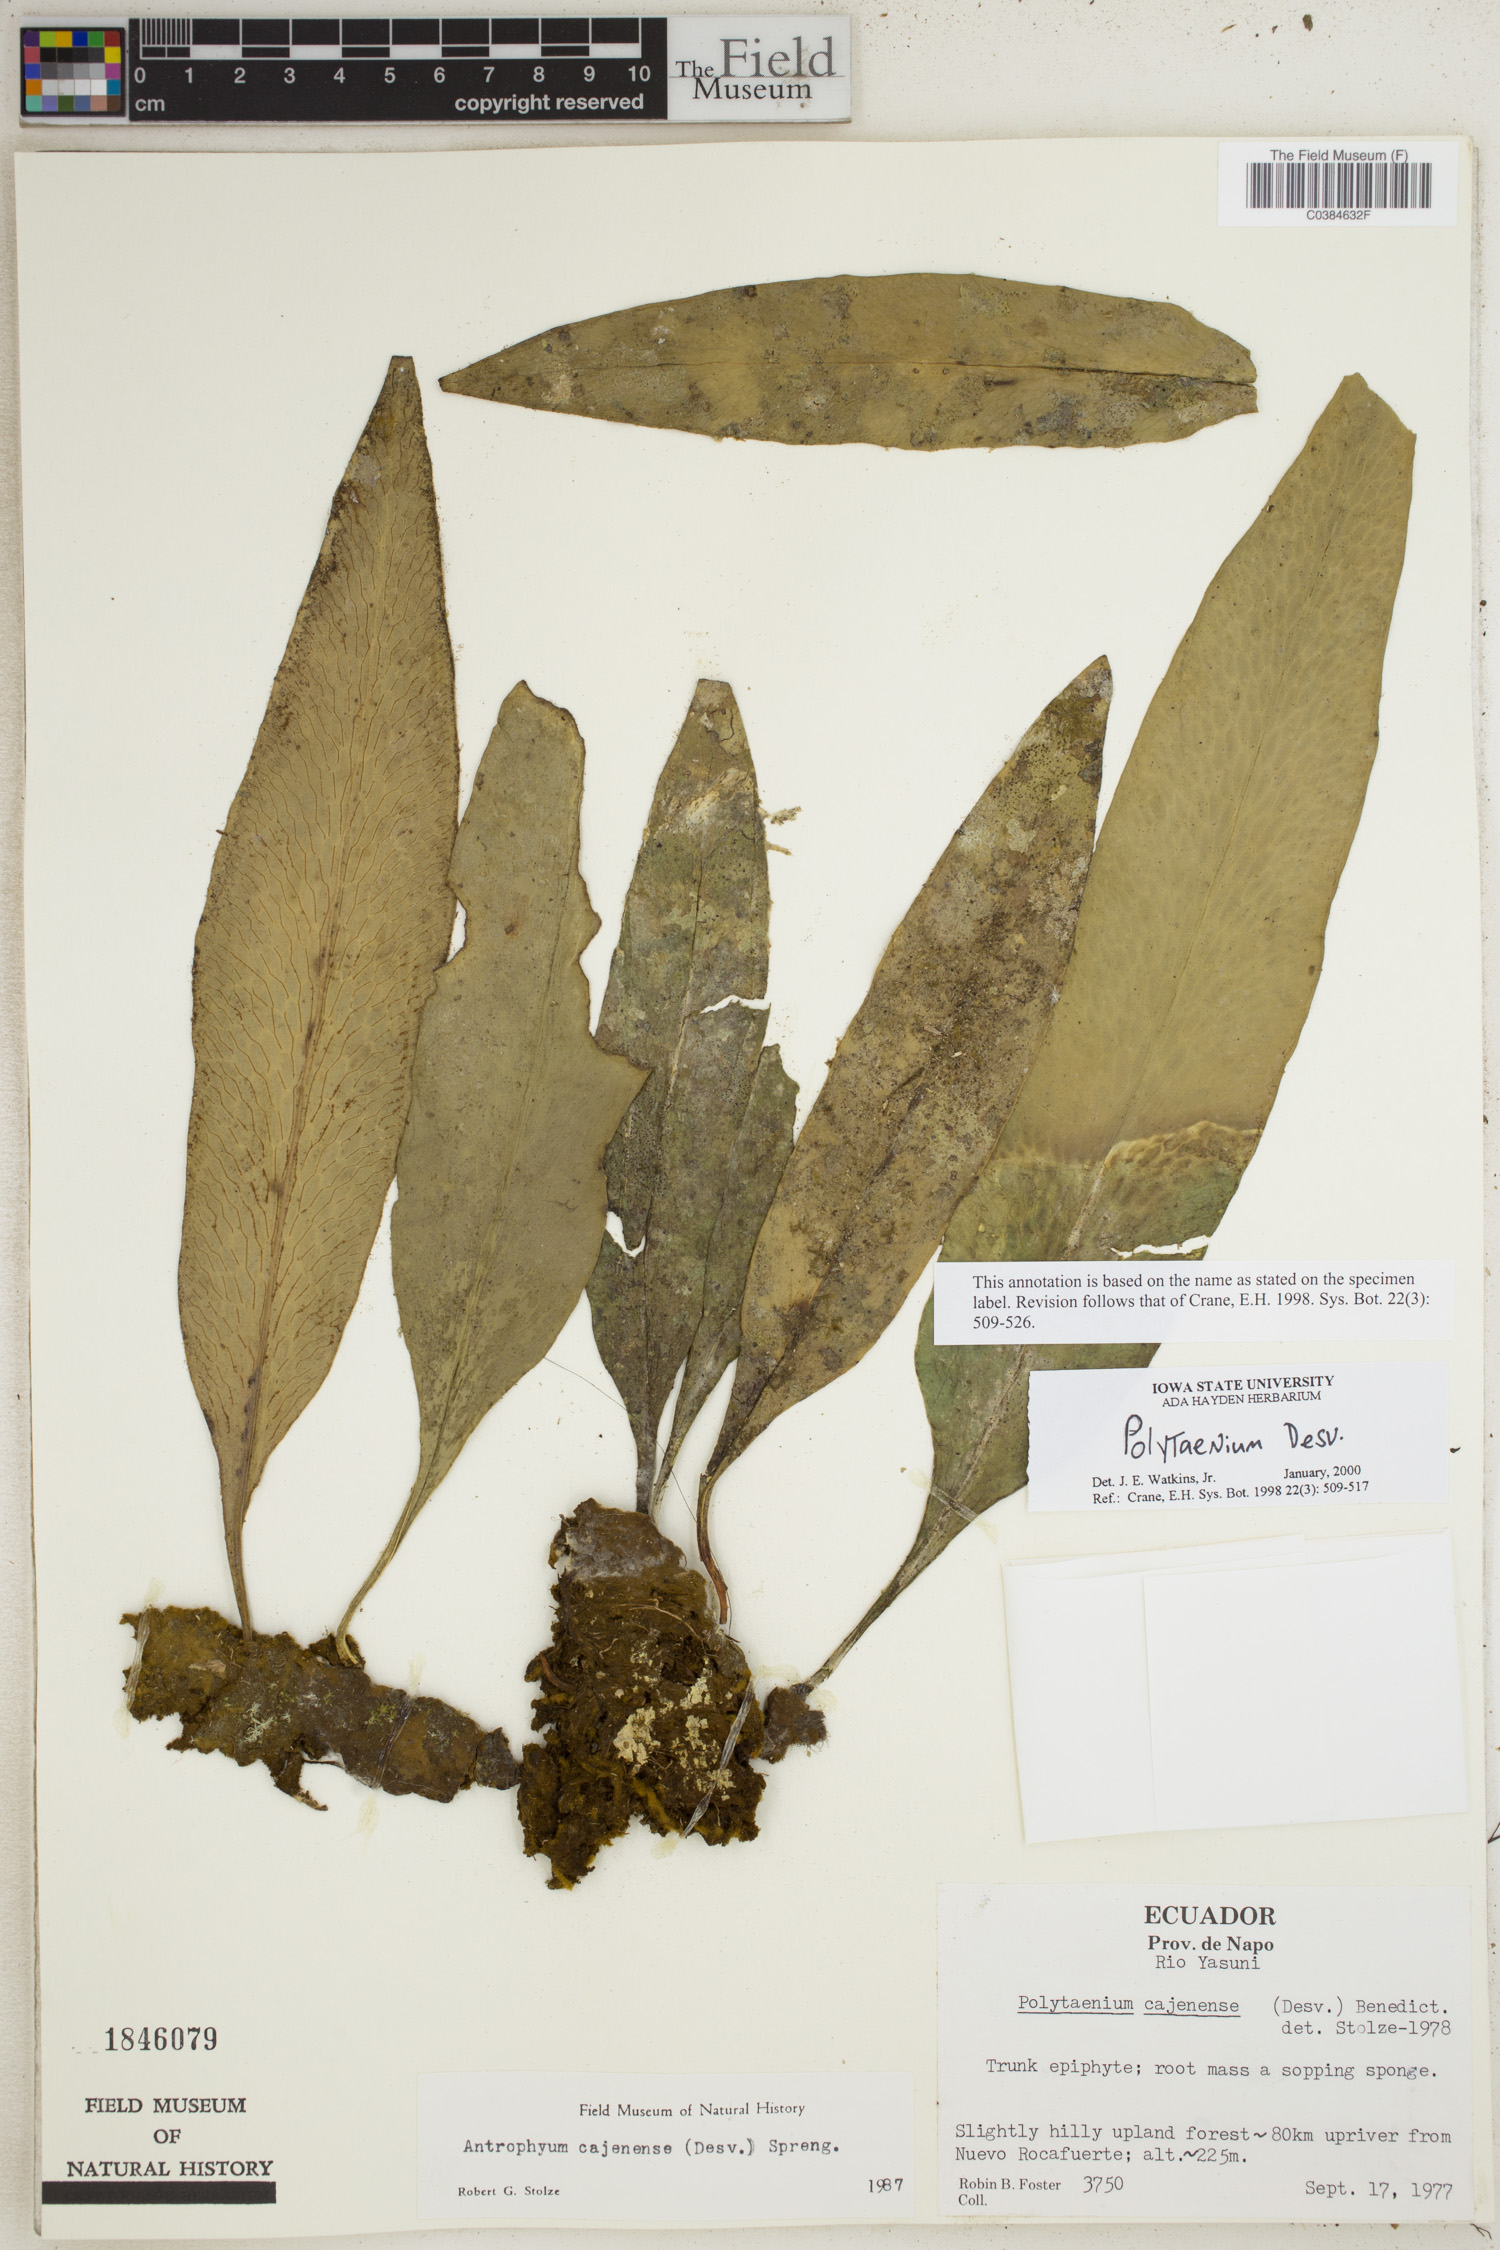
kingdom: Plantae
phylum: Tracheophyta
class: Polypodiopsida
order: Polypodiales
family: Pteridaceae
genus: Polytaenium
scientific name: Polytaenium
